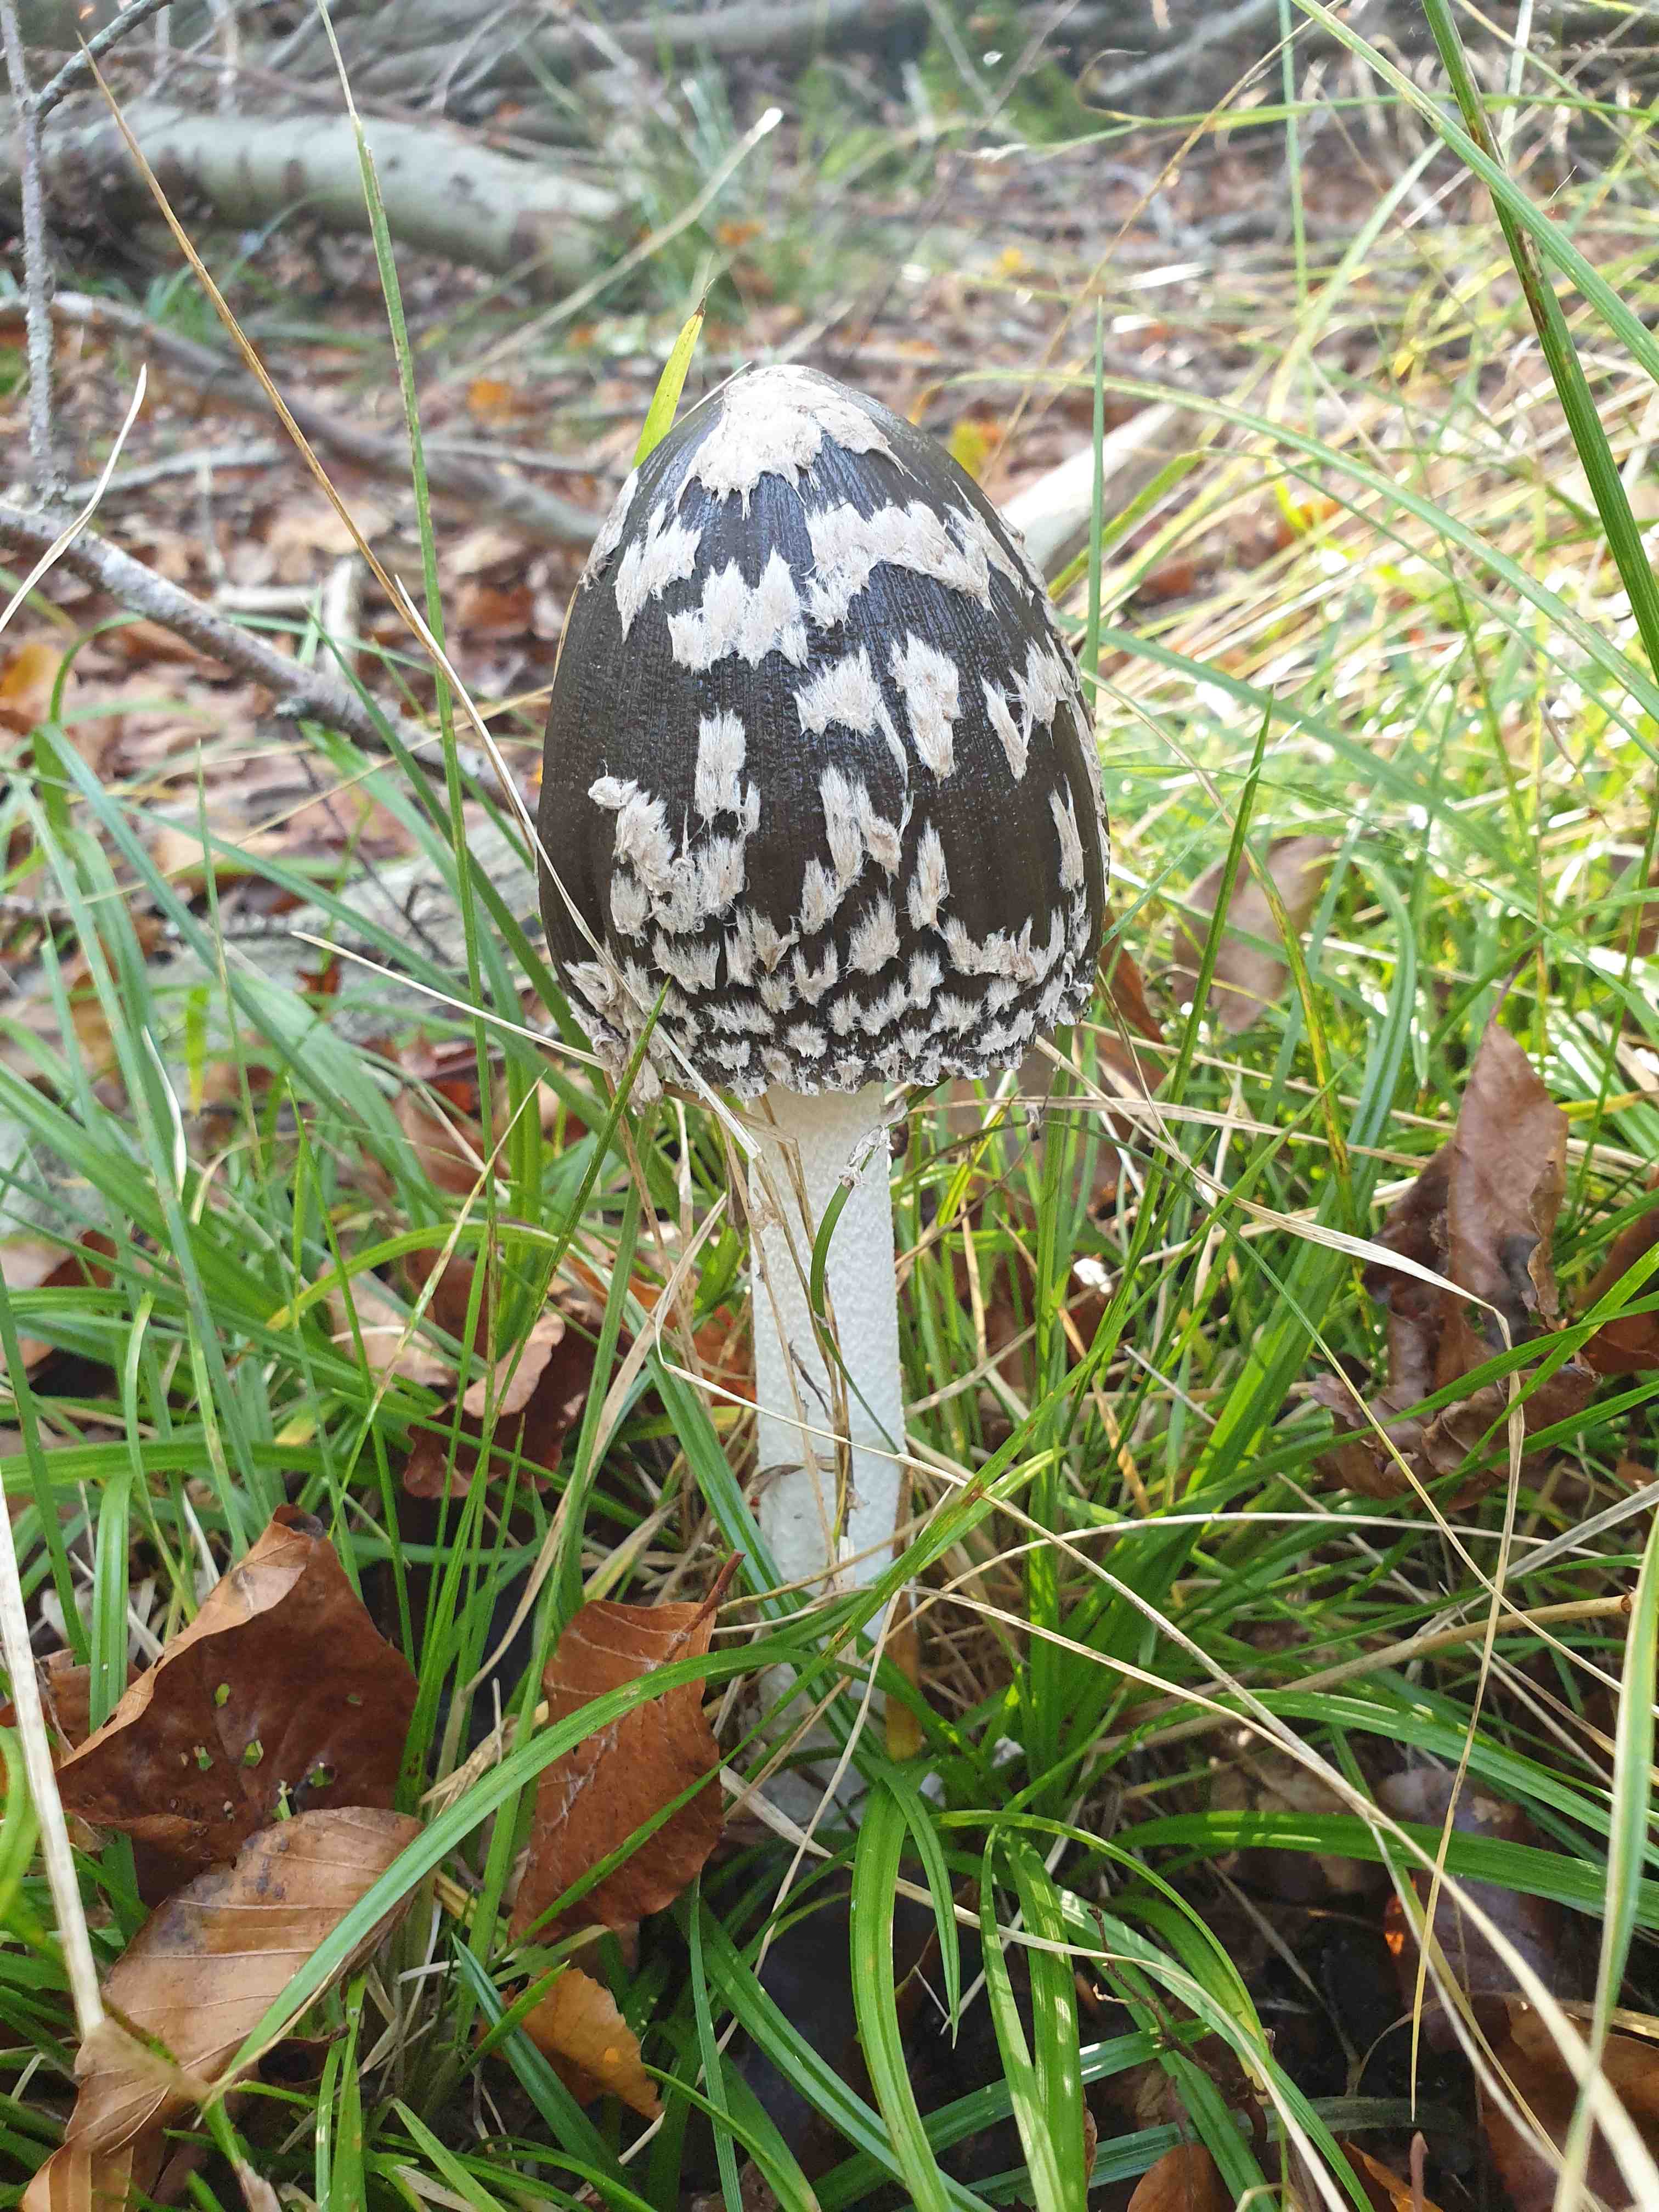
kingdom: Fungi
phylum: Basidiomycota
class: Agaricomycetes
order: Agaricales
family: Psathyrellaceae
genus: Coprinopsis
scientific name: Coprinopsis picacea
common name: skade-blækhat
